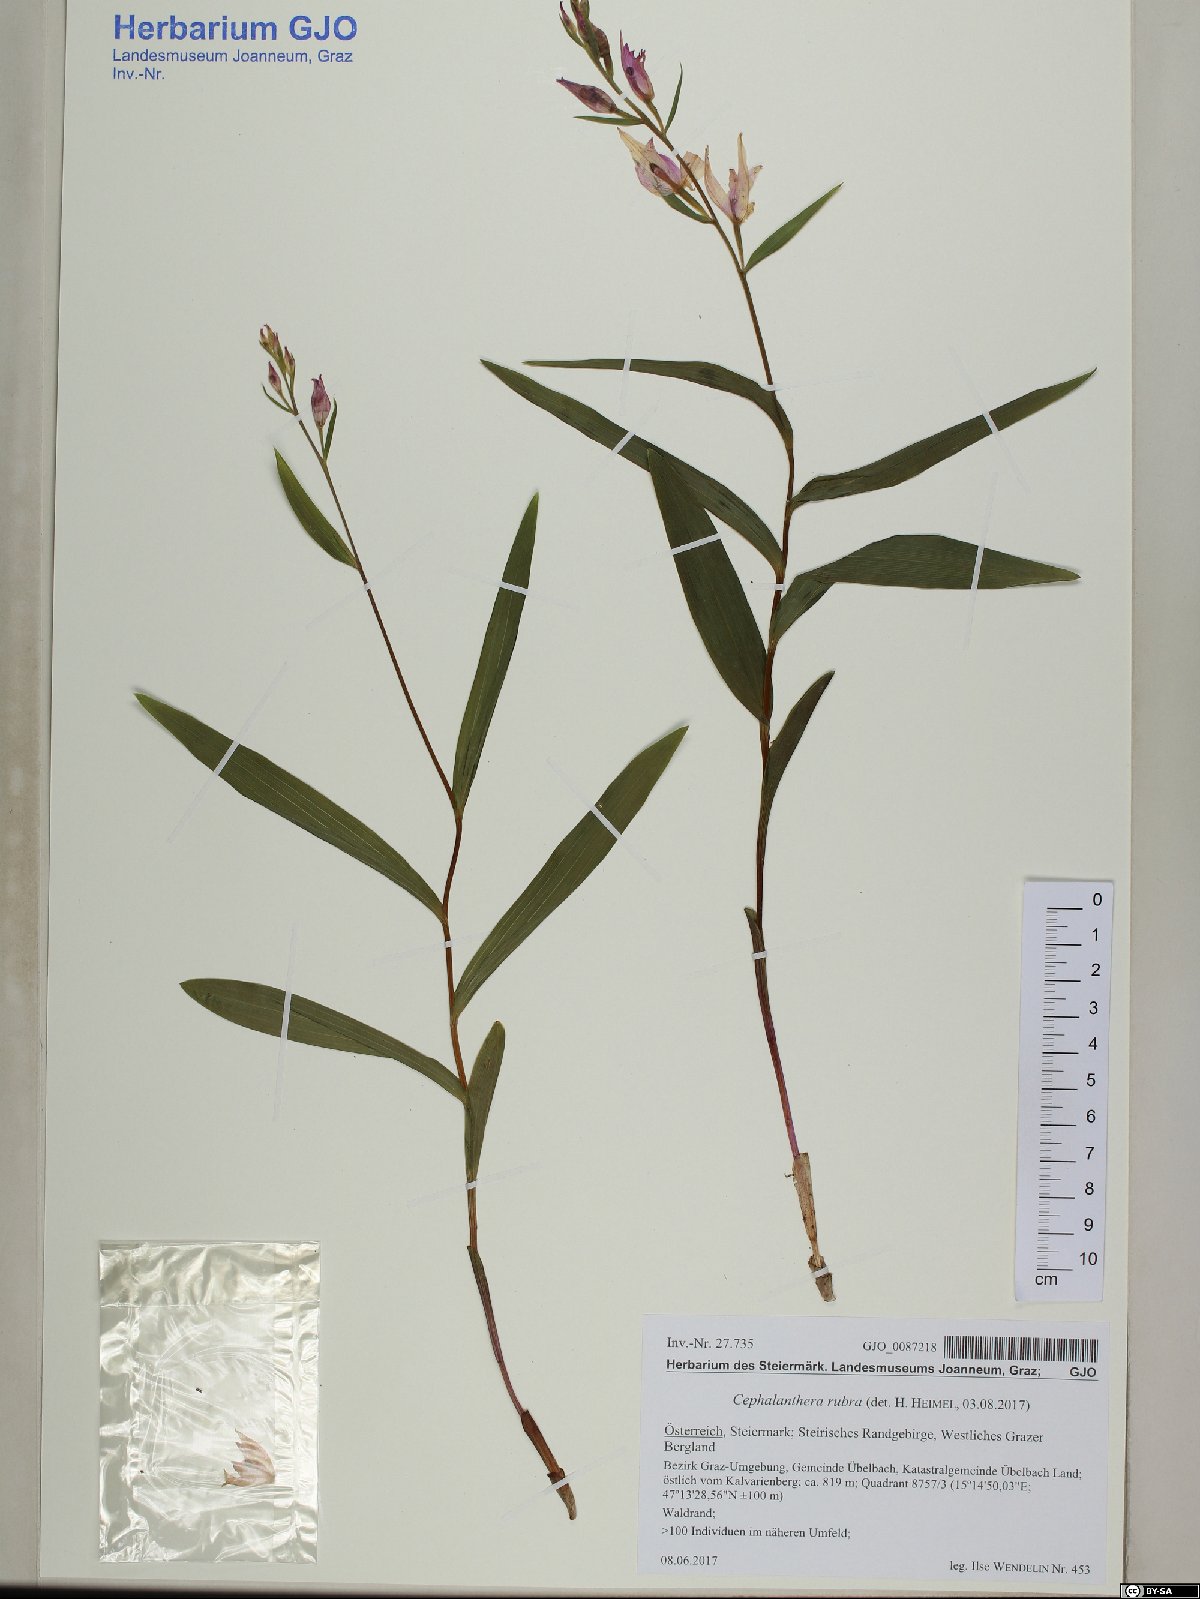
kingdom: Plantae
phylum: Tracheophyta
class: Liliopsida
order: Asparagales
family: Orchidaceae
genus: Cephalanthera
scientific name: Cephalanthera rubra
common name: Red helleborine
